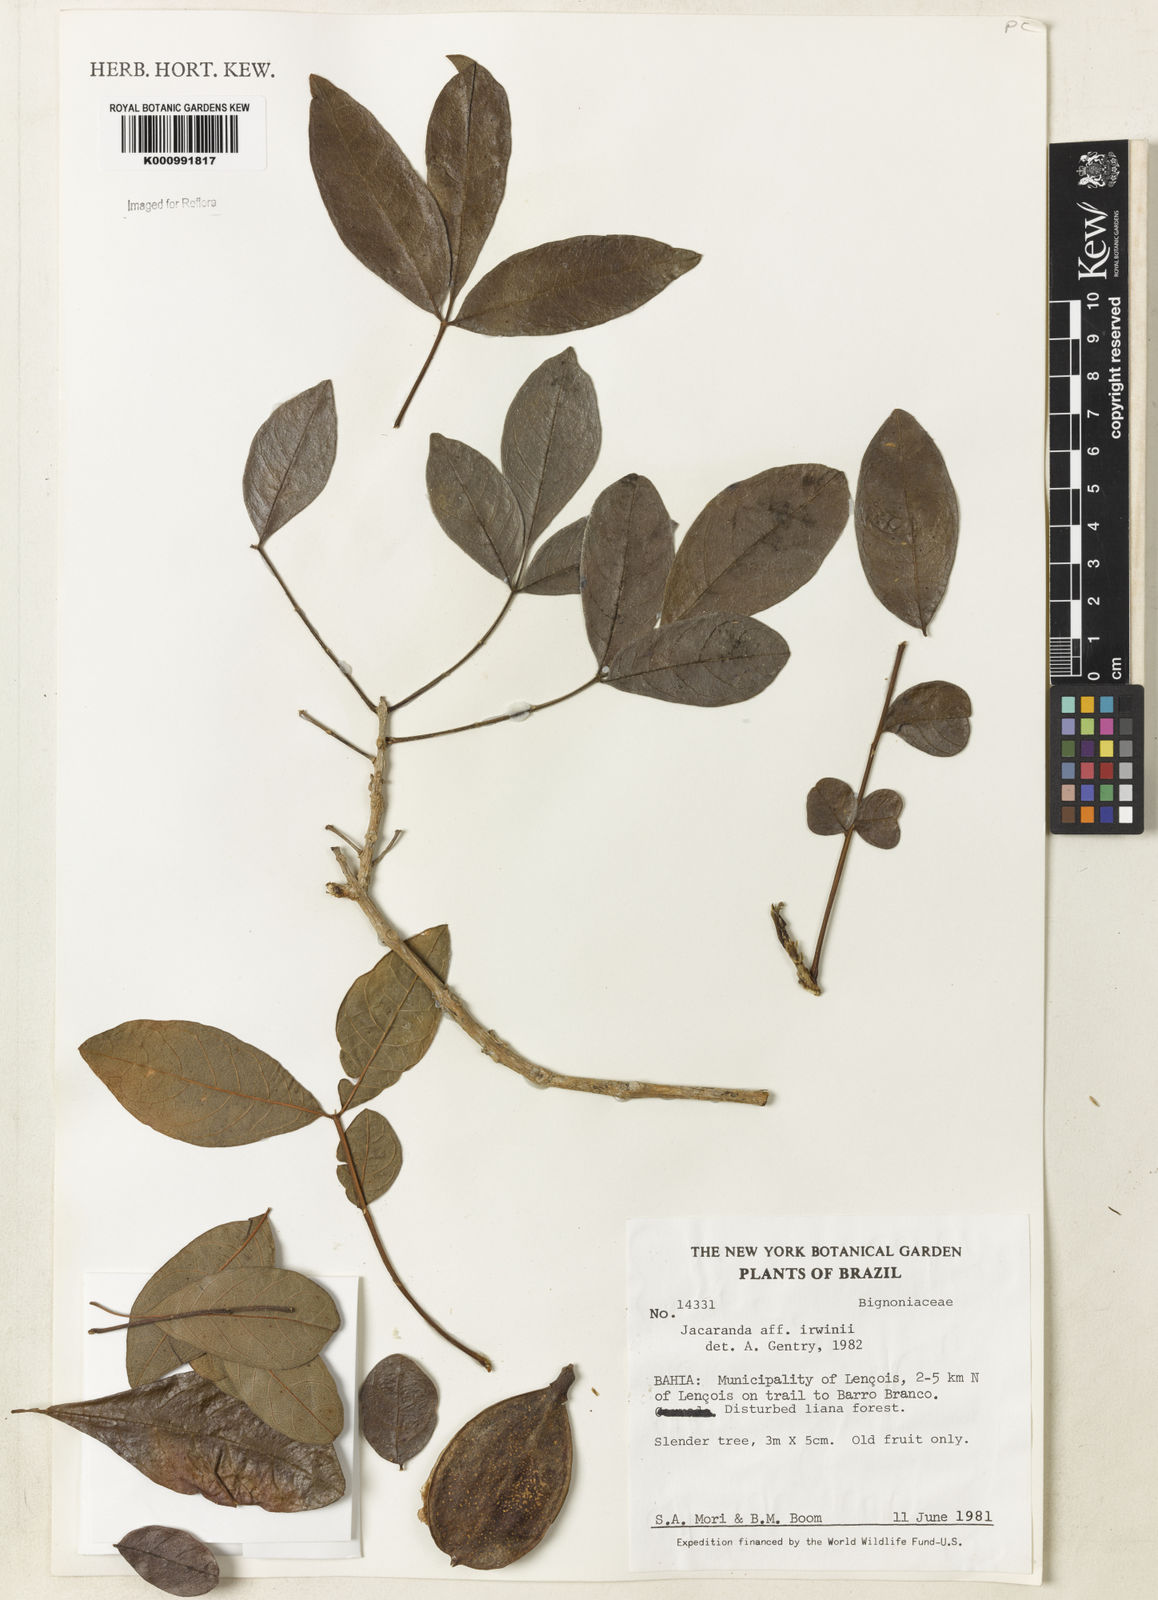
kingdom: Plantae
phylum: Tracheophyta
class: Magnoliopsida
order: Lamiales
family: Bignoniaceae
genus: Jacaranda
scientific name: Jacaranda irwinii
